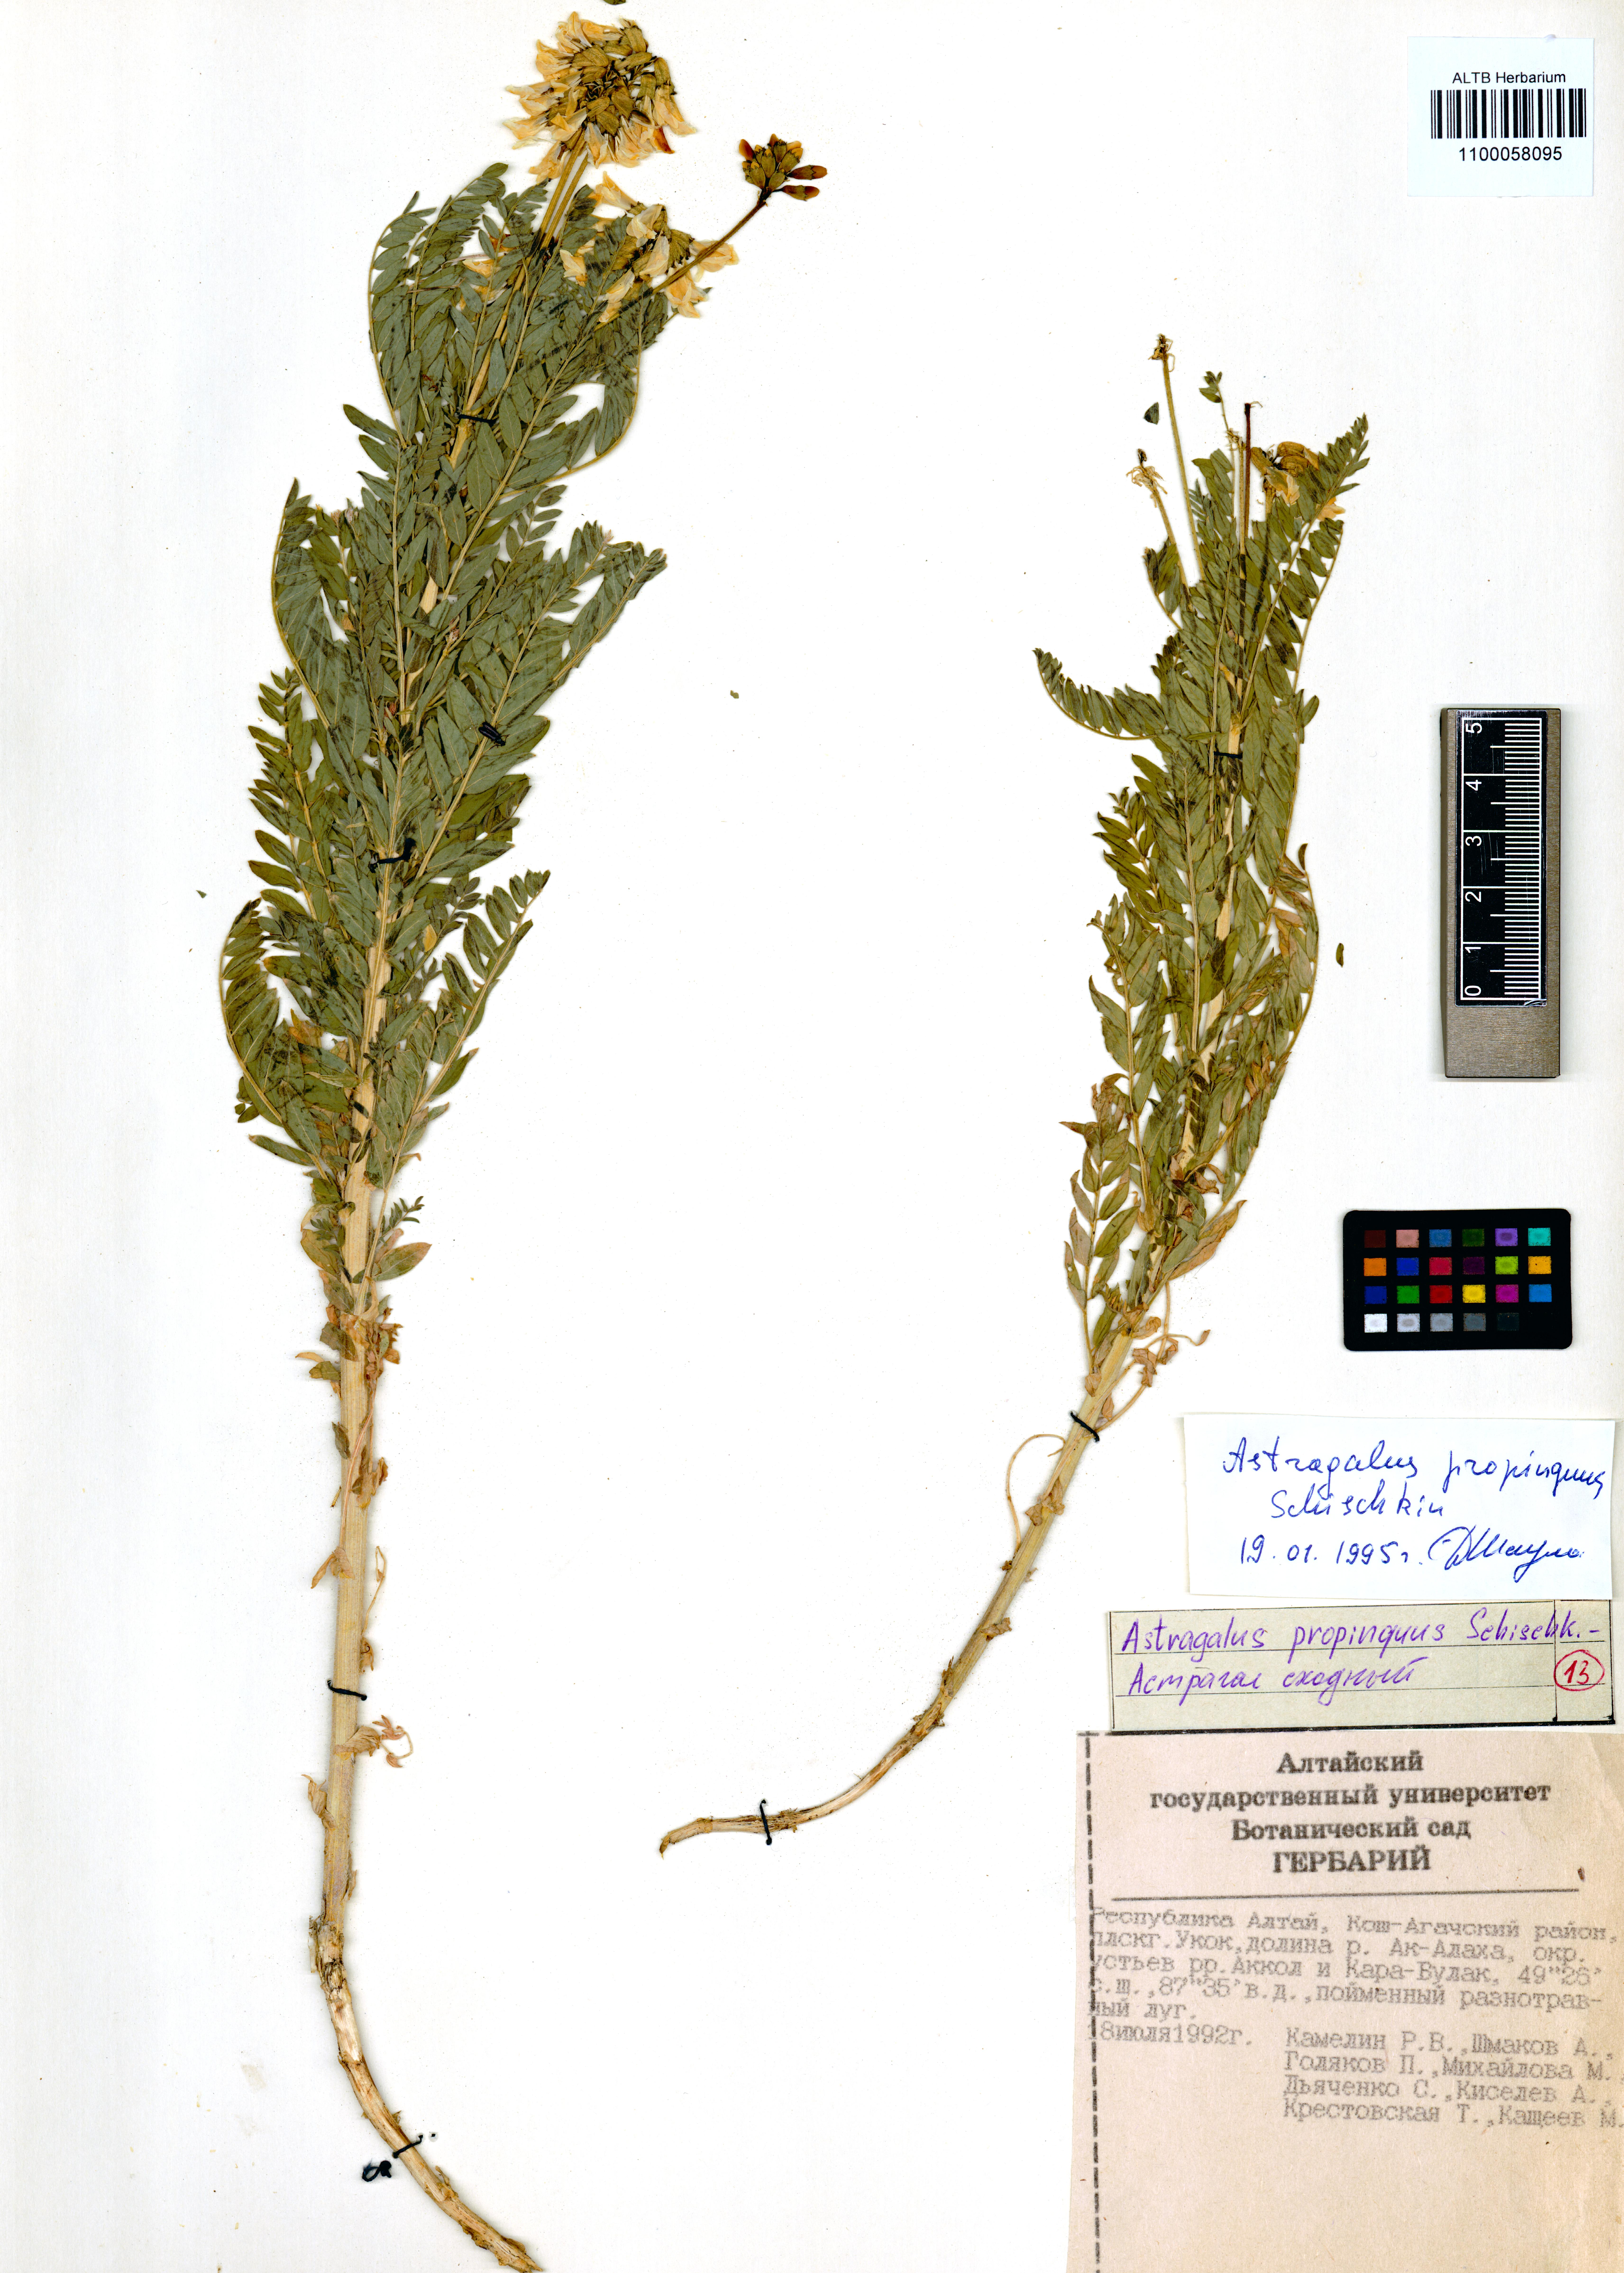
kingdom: Plantae
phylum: Tracheophyta
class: Magnoliopsida
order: Fabales
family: Fabaceae
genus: Astragalus
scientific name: Astragalus mongholicus
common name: Membranous milk-vetch
